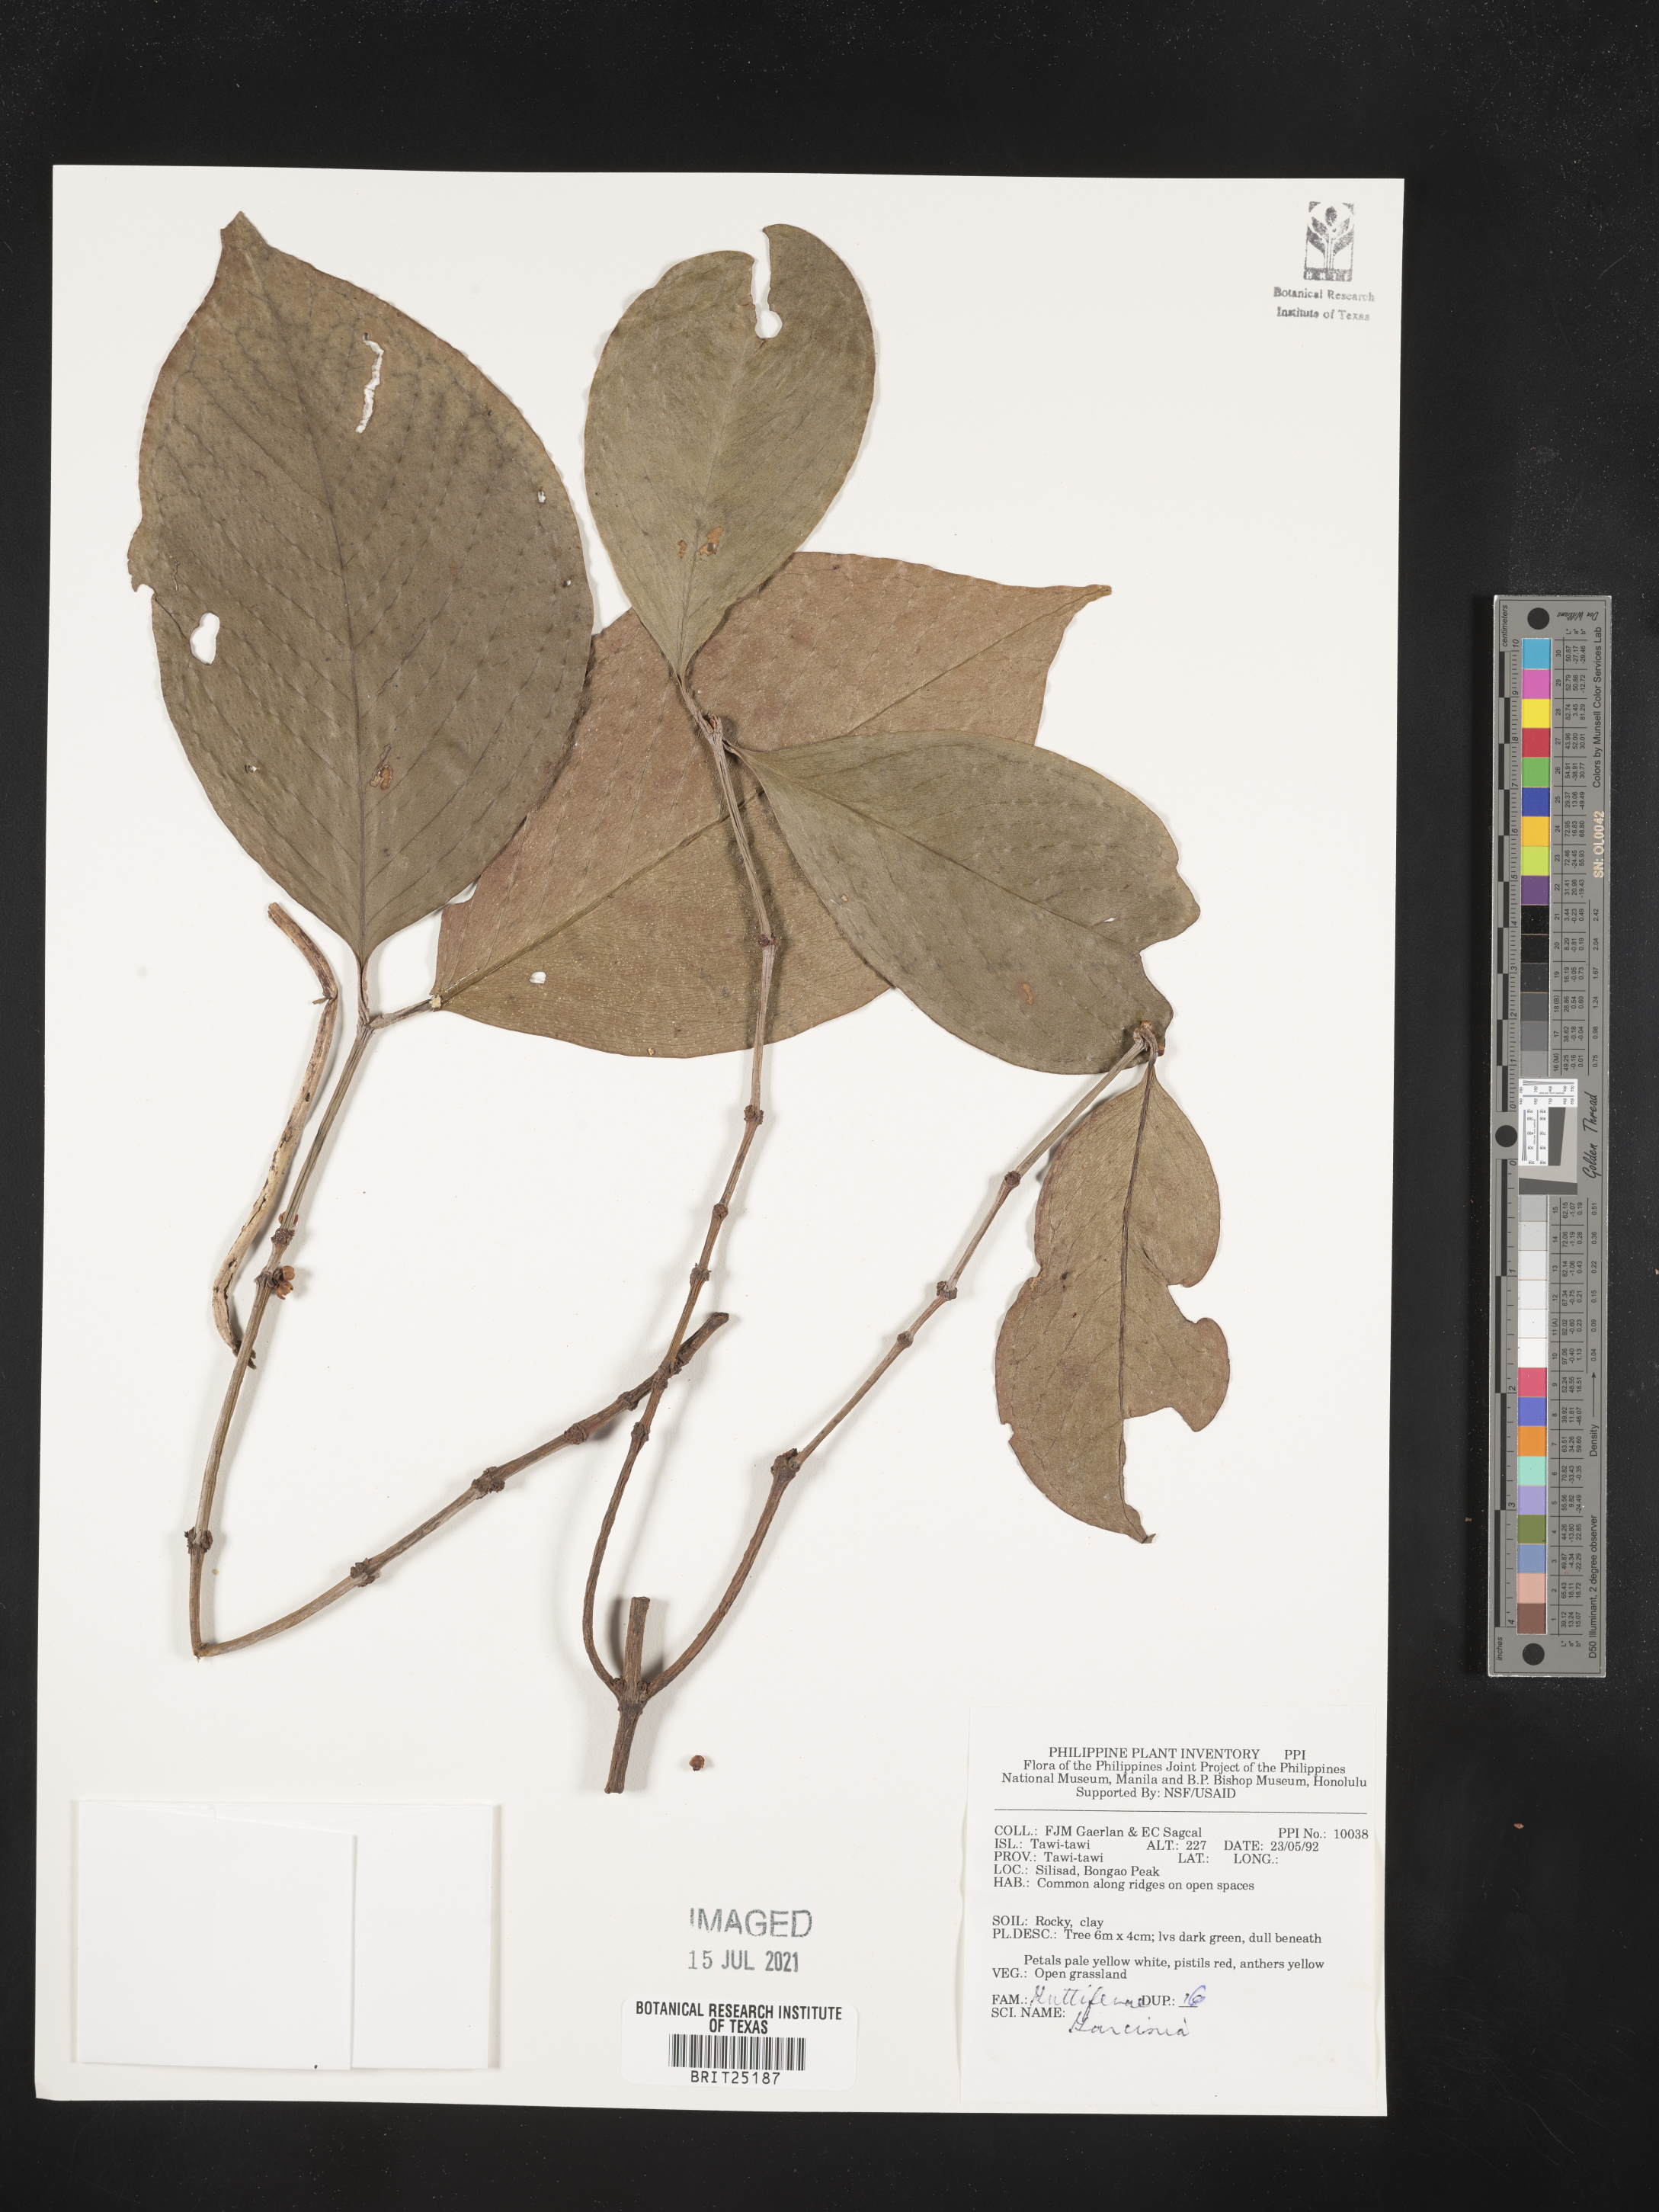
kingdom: Plantae
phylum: Tracheophyta
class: Magnoliopsida
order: Malpighiales
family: Clusiaceae
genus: Garcinia
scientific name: Garcinia
